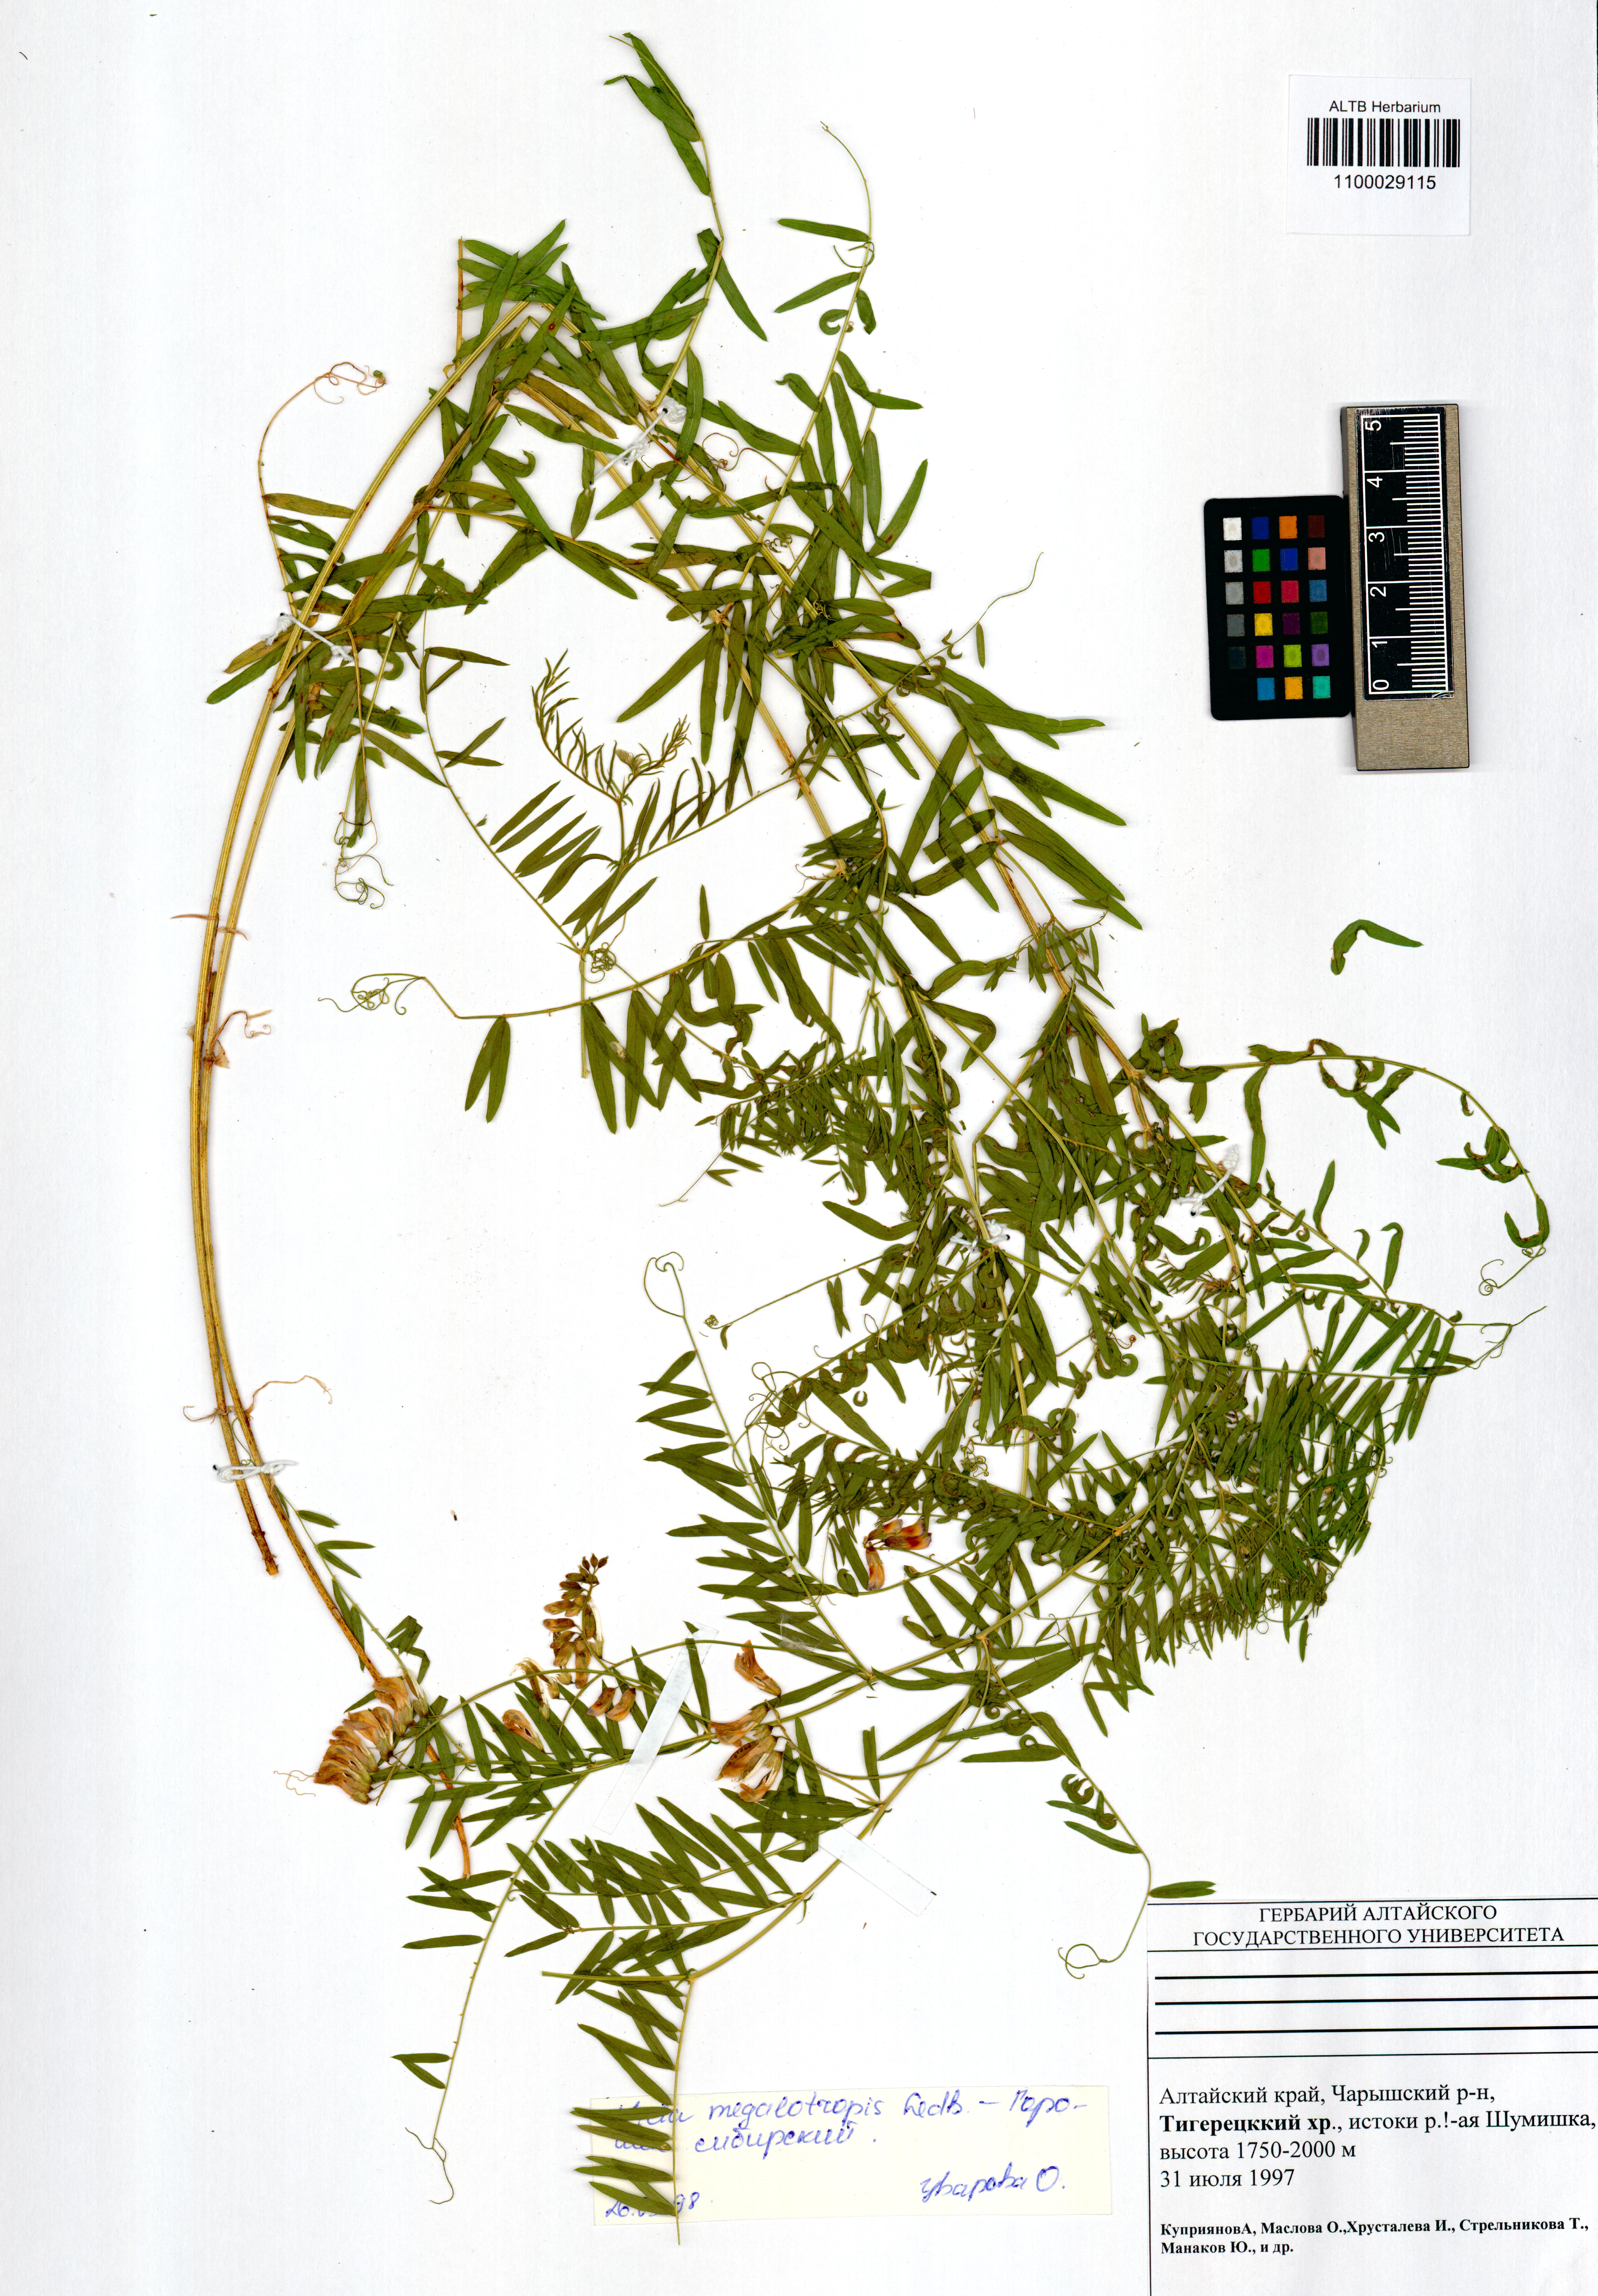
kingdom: Plantae
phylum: Tracheophyta
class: Magnoliopsida
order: Fabales
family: Fabaceae
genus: Vicia
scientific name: Vicia megalotropis
